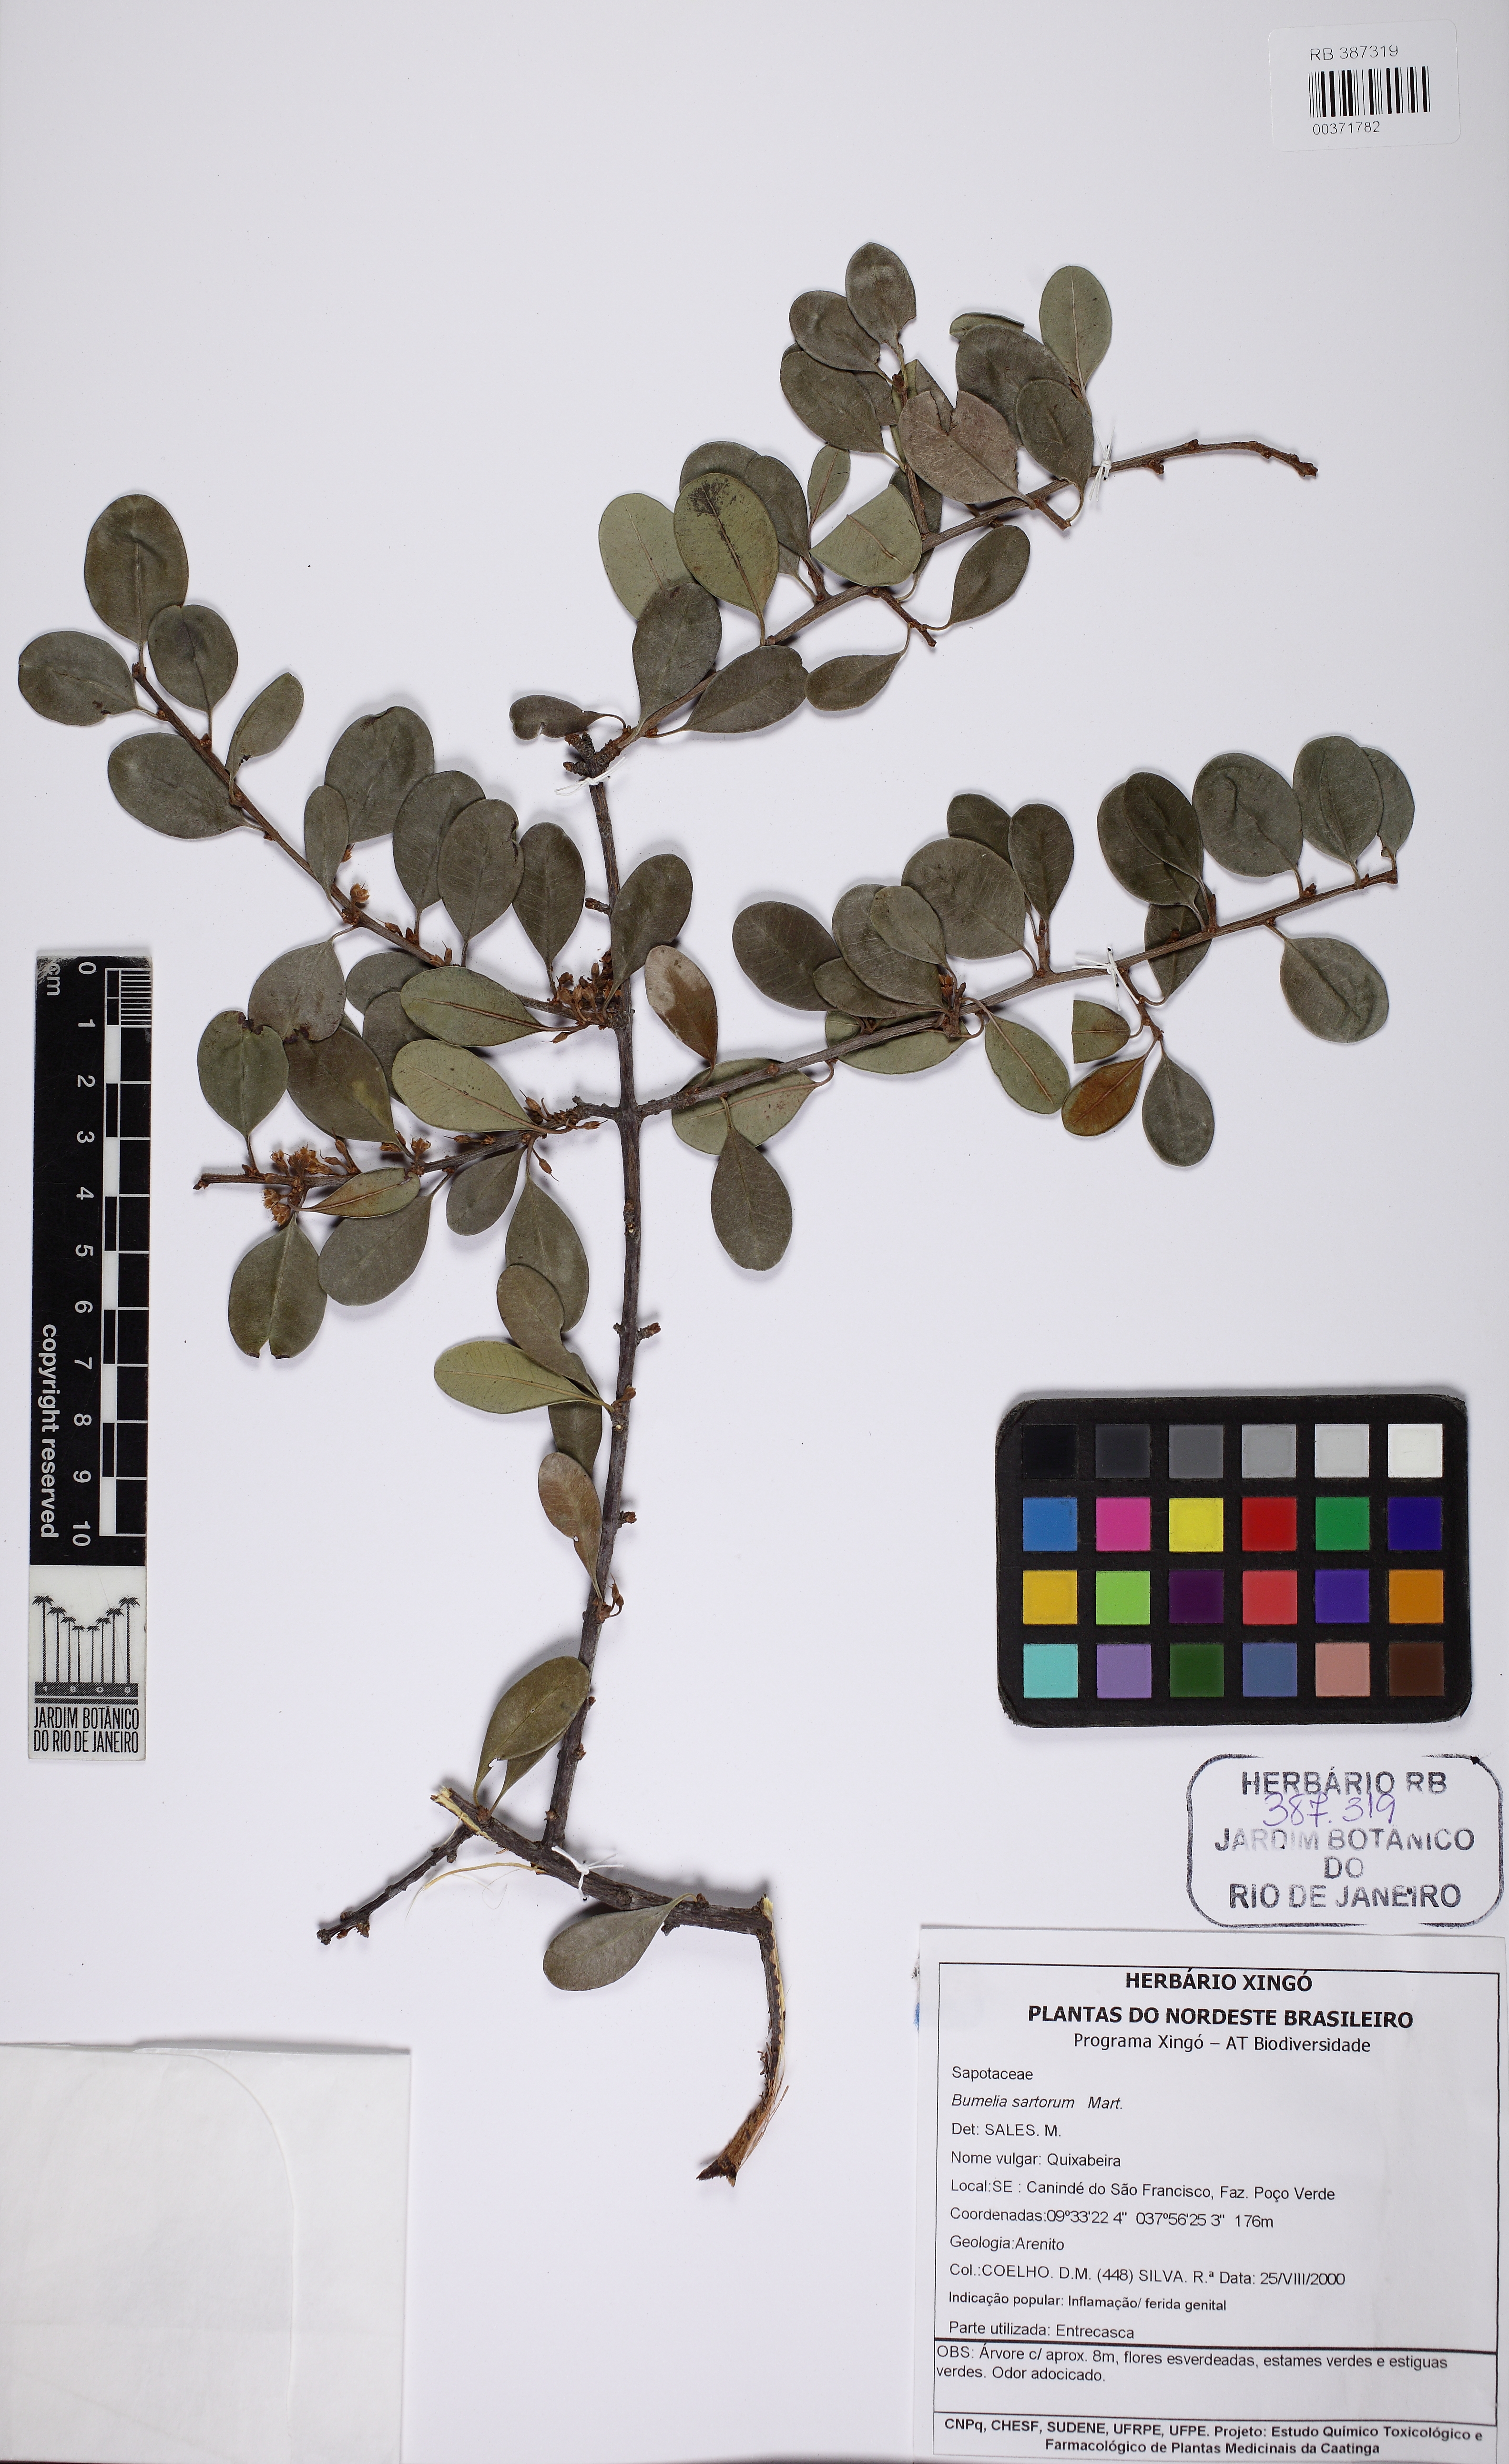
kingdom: Plantae
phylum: Tracheophyta
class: Magnoliopsida
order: Ericales
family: Sapotaceae
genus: Sideroxylon
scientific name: Sideroxylon obtusifolium
